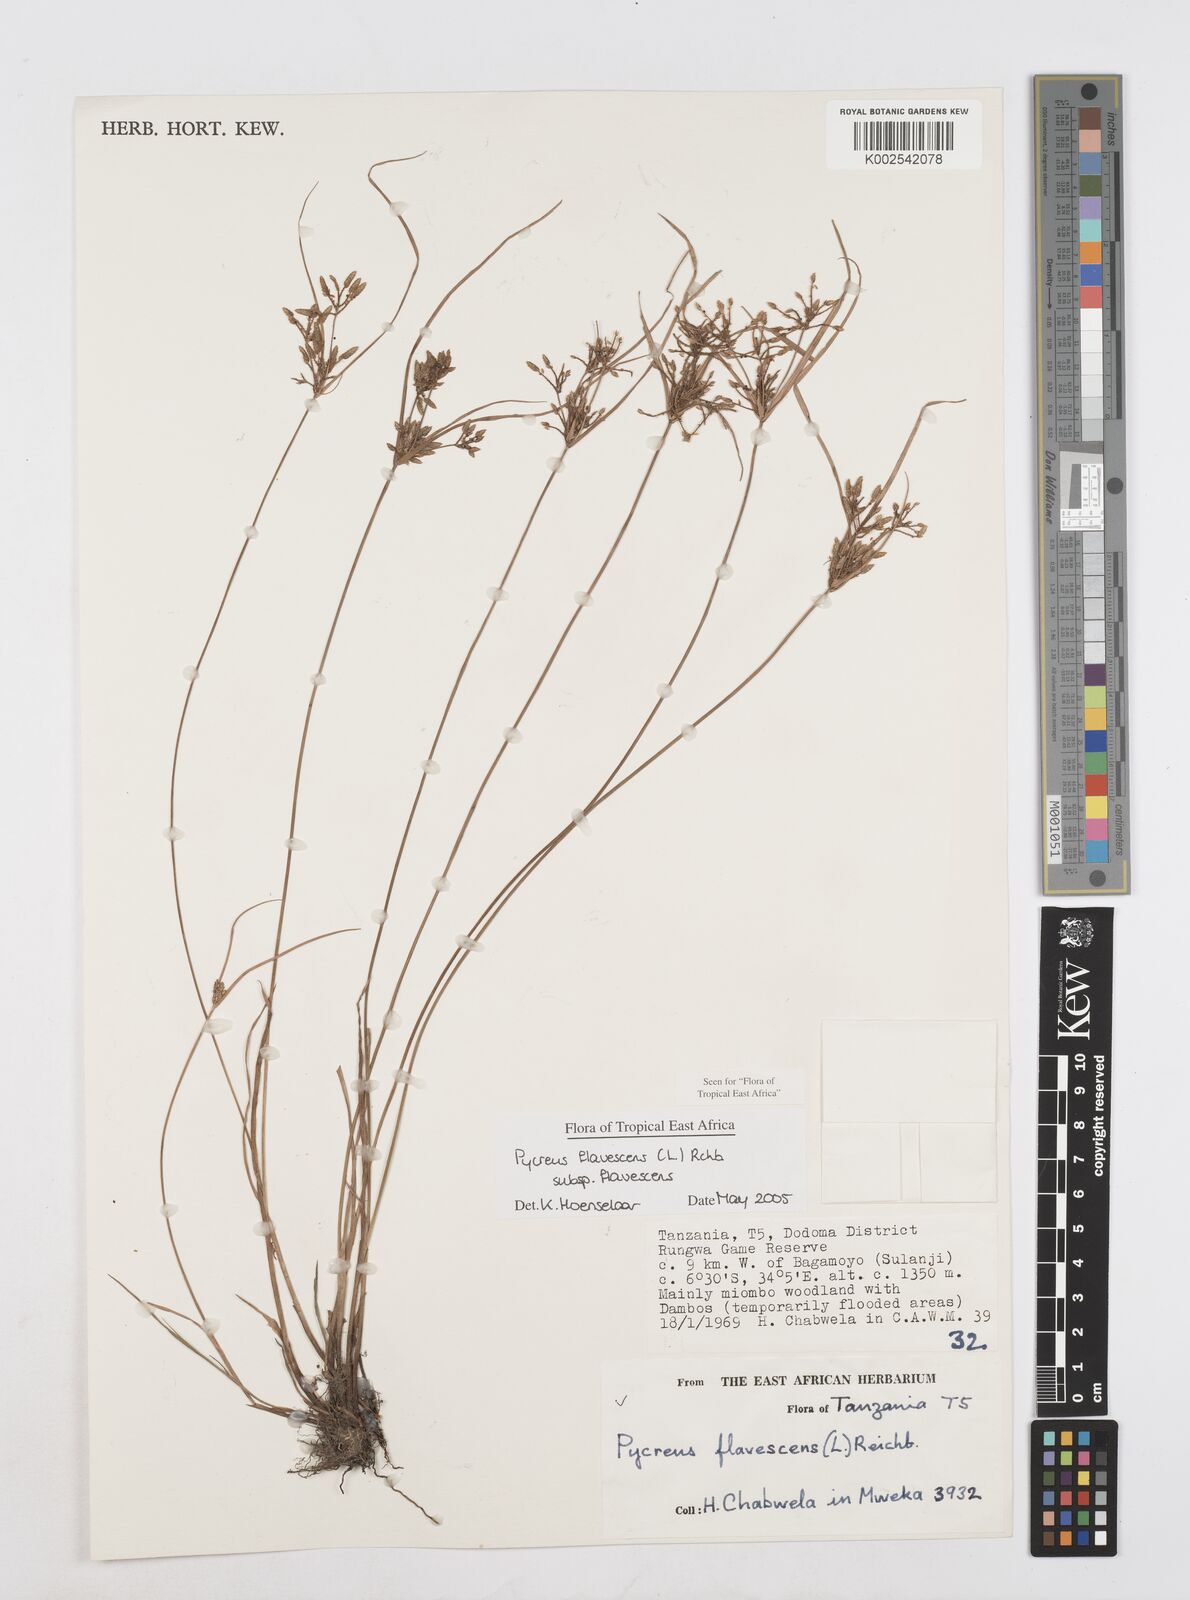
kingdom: Plantae
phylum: Tracheophyta
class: Liliopsida
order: Poales
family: Cyperaceae
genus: Cyperus
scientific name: Cyperus flavescens
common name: Yellow galingale
